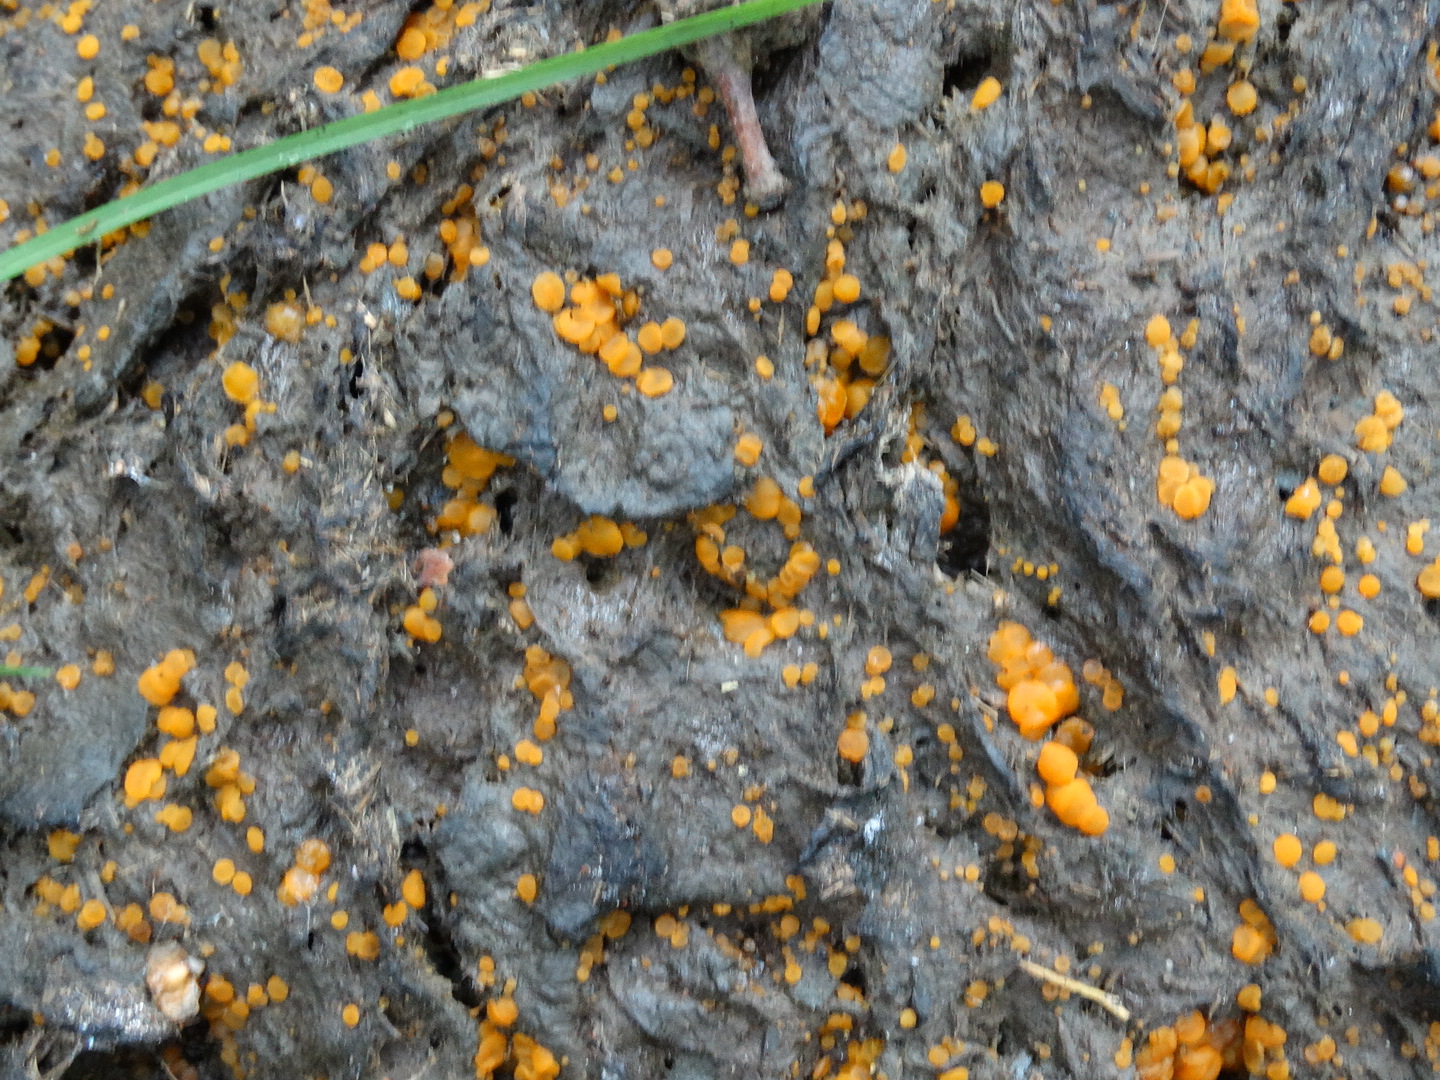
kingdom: Fungi
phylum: Ascomycota
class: Pezizomycetes
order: Pezizales
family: Pyronemataceae
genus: Cheilymenia
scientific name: Cheilymenia granulata
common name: møgbæger
